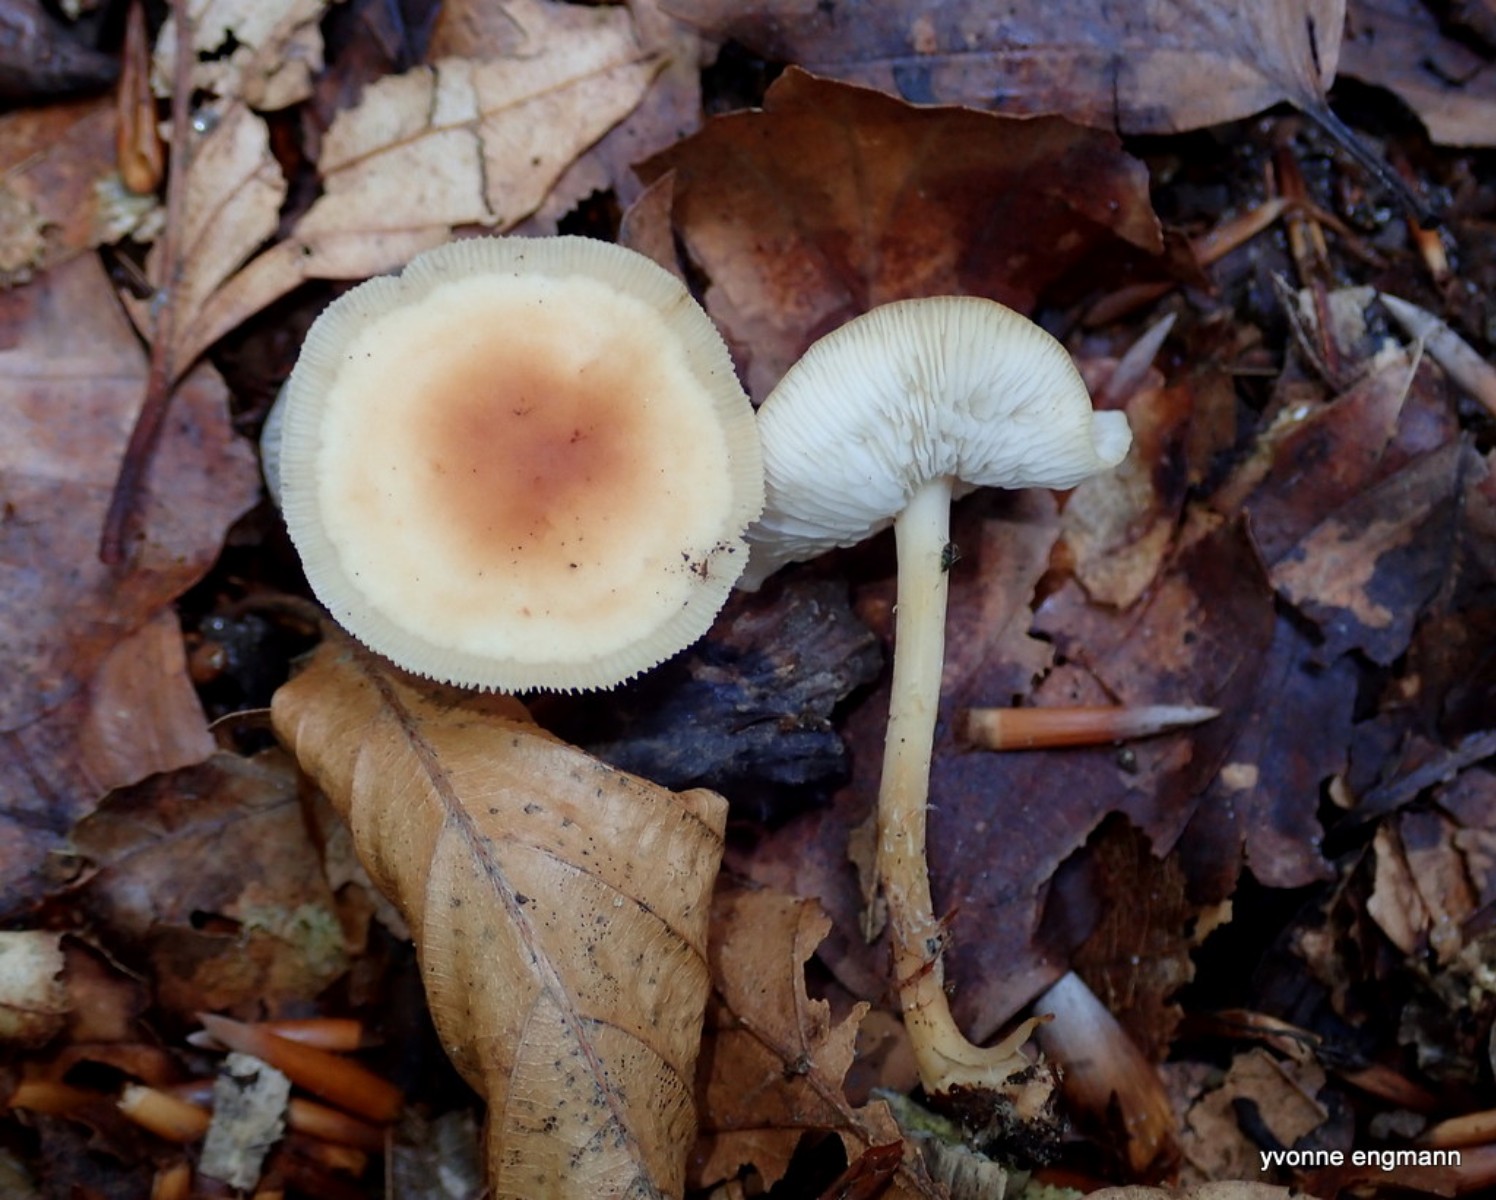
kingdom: Fungi
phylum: Basidiomycota
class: Agaricomycetes
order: Agaricales
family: Omphalotaceae
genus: Gymnopus
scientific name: Gymnopus dryophilus
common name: løv-fladhat
